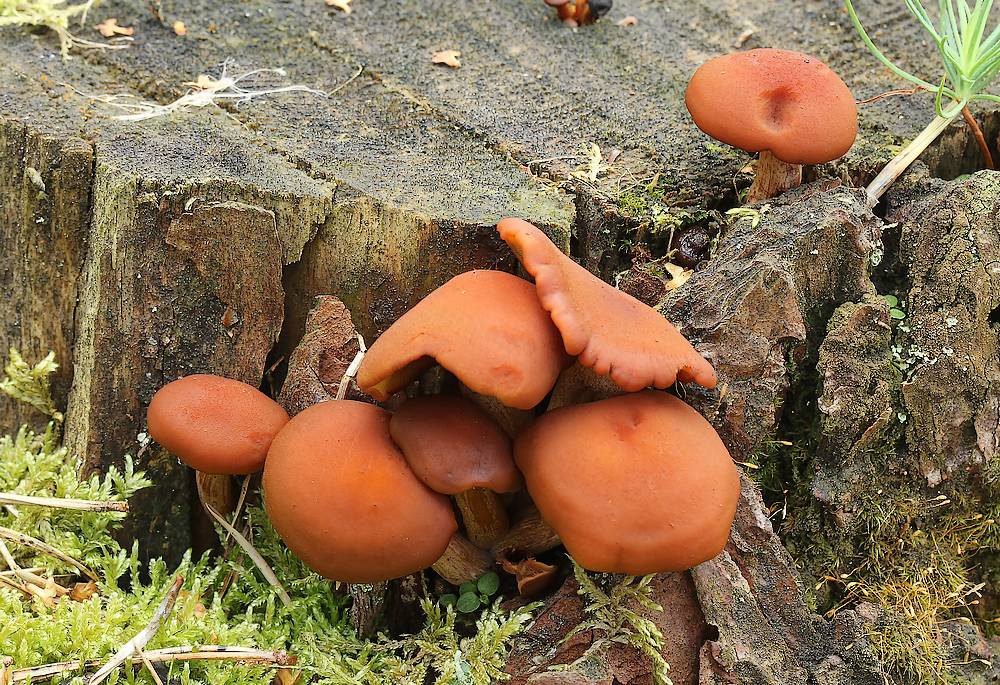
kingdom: Fungi
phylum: Basidiomycota
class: Agaricomycetes
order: Agaricales
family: Hymenogastraceae
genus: Gymnopilus
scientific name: Gymnopilus picreus
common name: puklet flammehat
